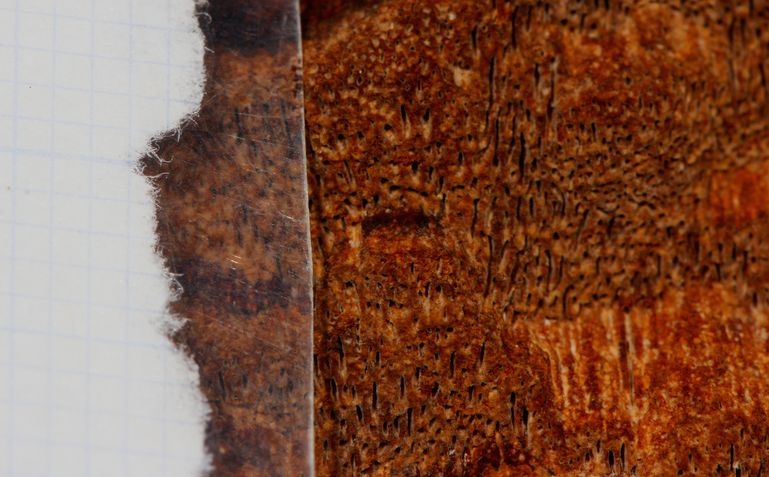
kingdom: Fungi
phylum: Basidiomycota
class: Agaricomycetes
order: Hymenochaetales
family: Hymenochaetaceae
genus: Fuscoporia
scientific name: Fuscoporia
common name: Ildporesvamp
